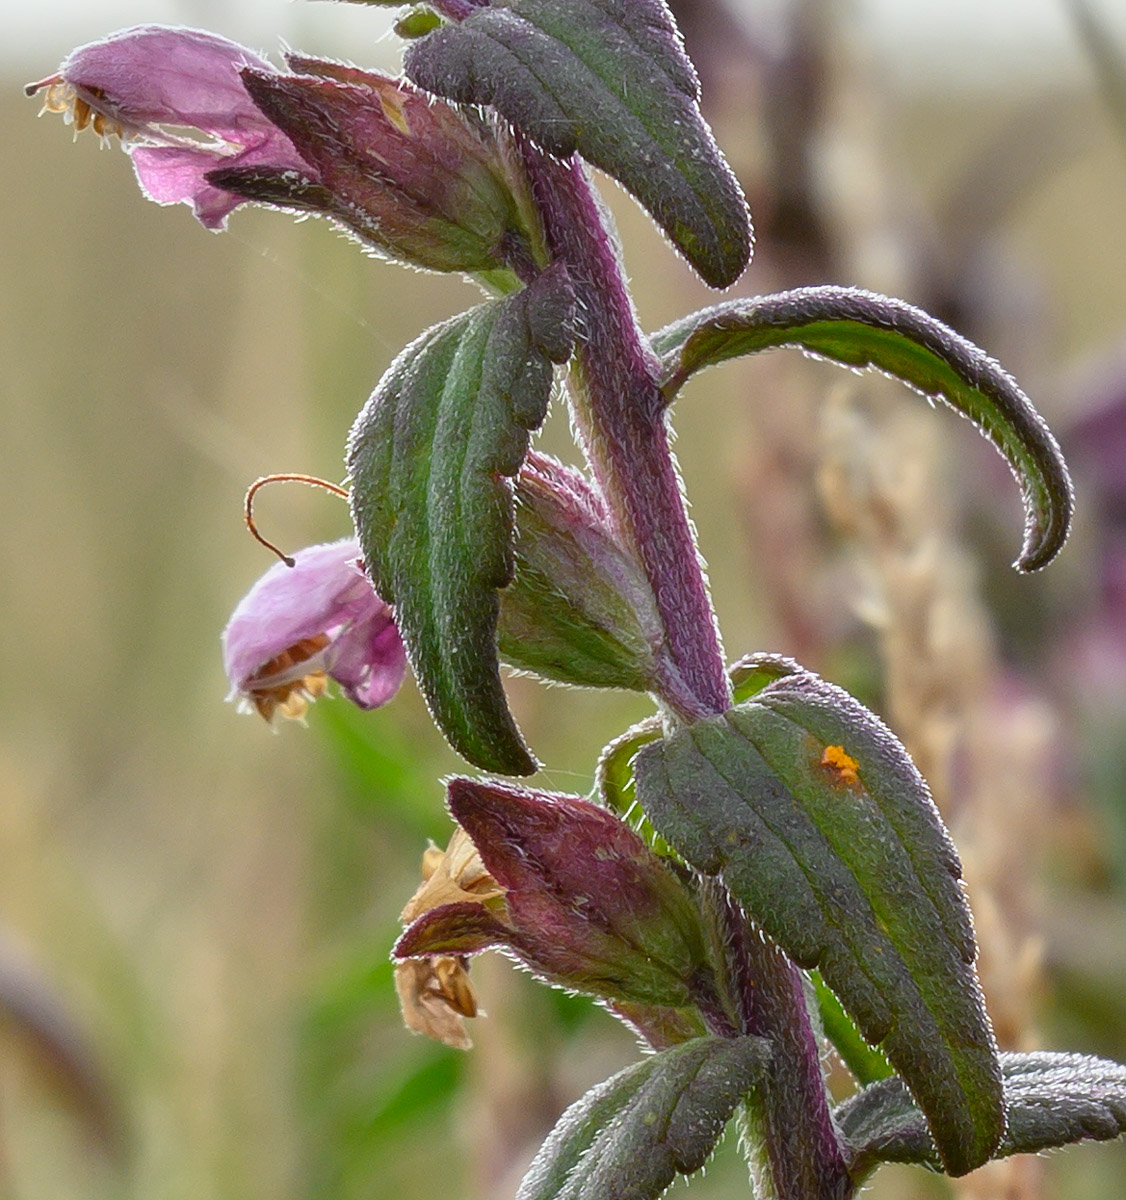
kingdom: Fungi
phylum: Basidiomycota
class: Pucciniomycetes
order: Pucciniales
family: Coleosporiaceae
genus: Coleosporium
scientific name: Coleosporium tussilaginis
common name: almindelig fyrrenålerust
